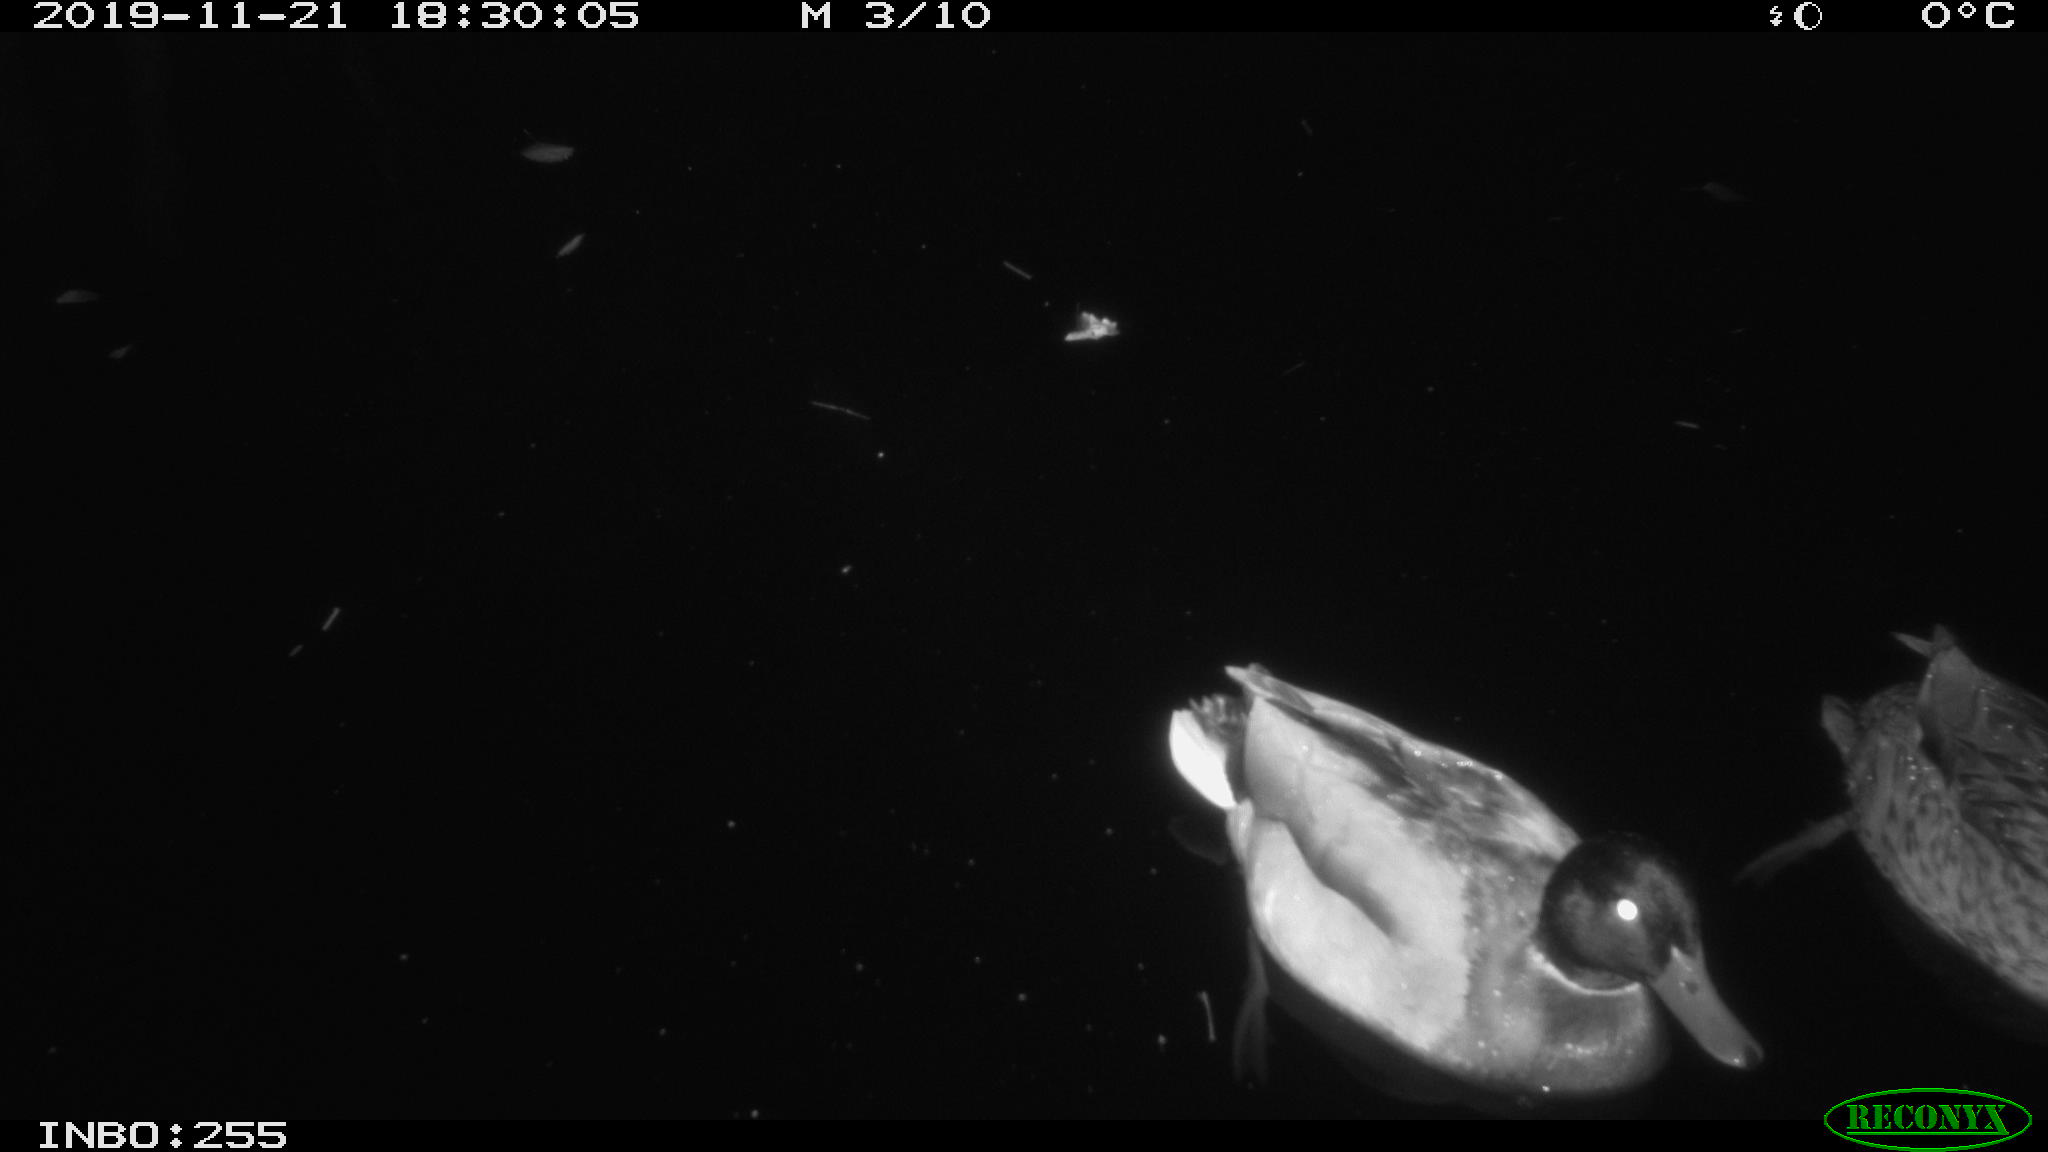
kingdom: Animalia
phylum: Chordata
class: Aves
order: Anseriformes
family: Anatidae
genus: Anas
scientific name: Anas platyrhynchos
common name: Mallard
